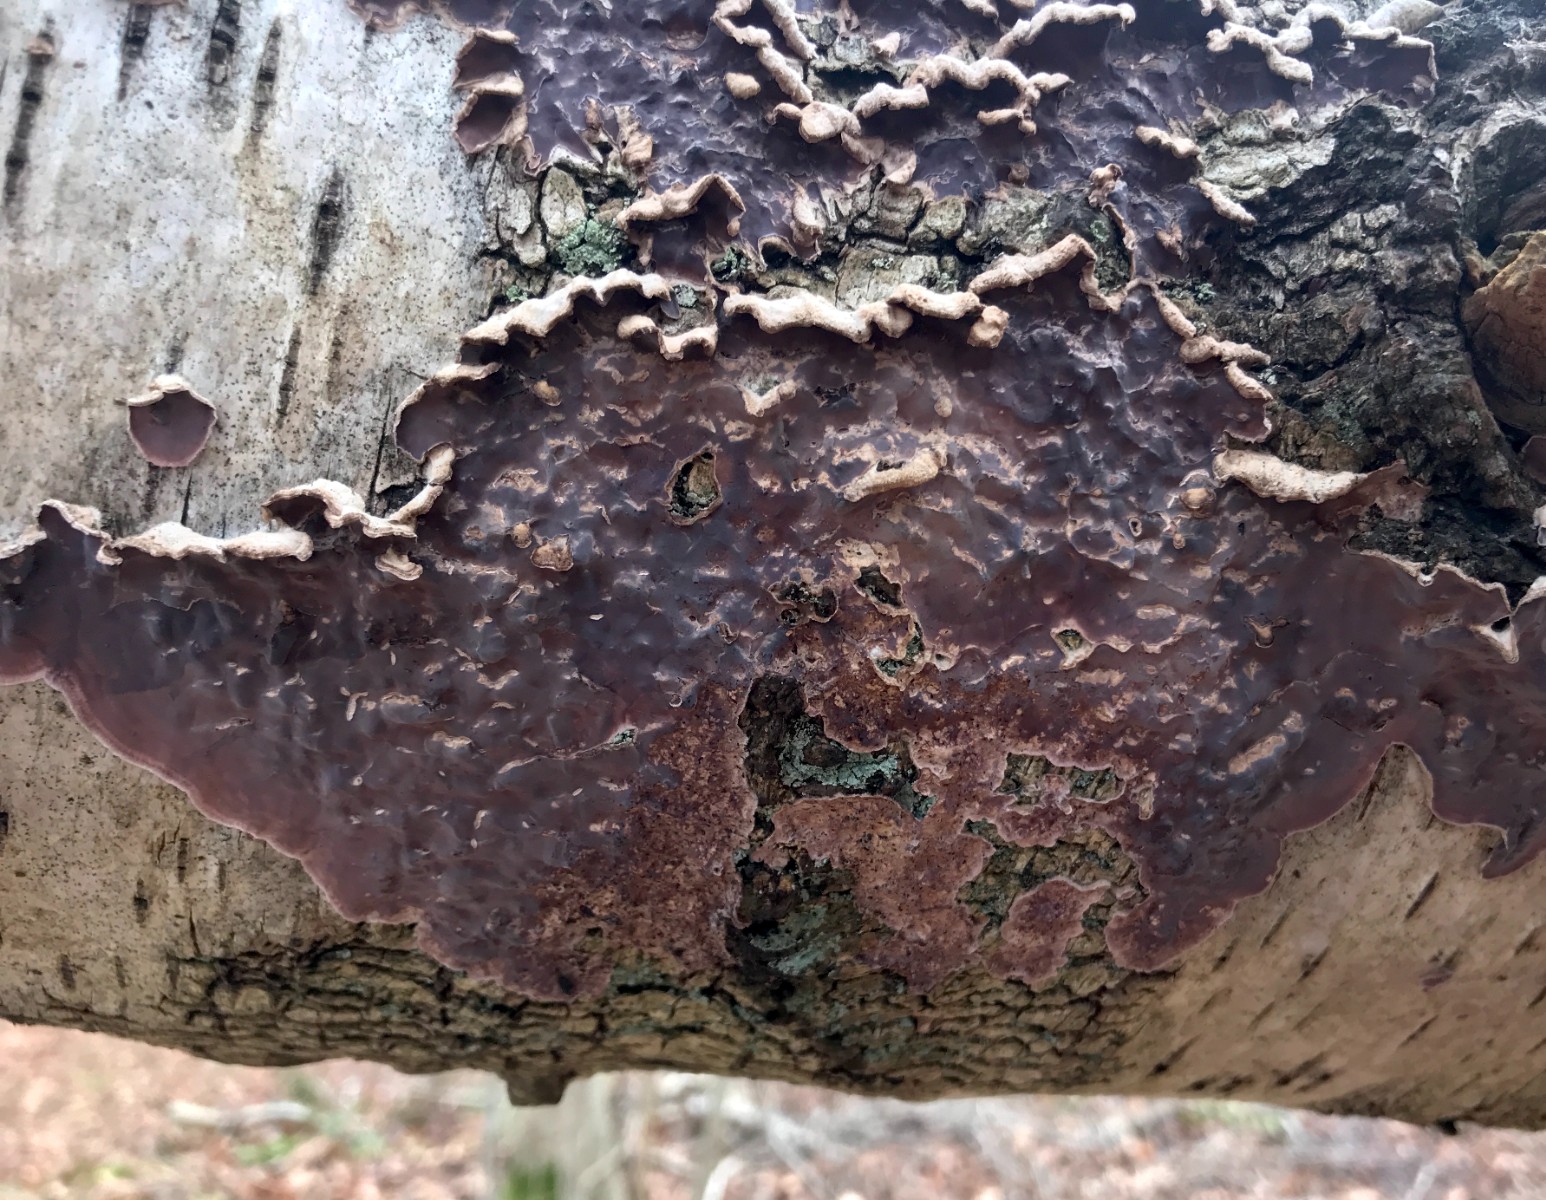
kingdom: Fungi
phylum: Basidiomycota
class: Agaricomycetes
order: Agaricales
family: Cyphellaceae
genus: Chondrostereum
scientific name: Chondrostereum purpureum
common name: purpurlædersvamp
